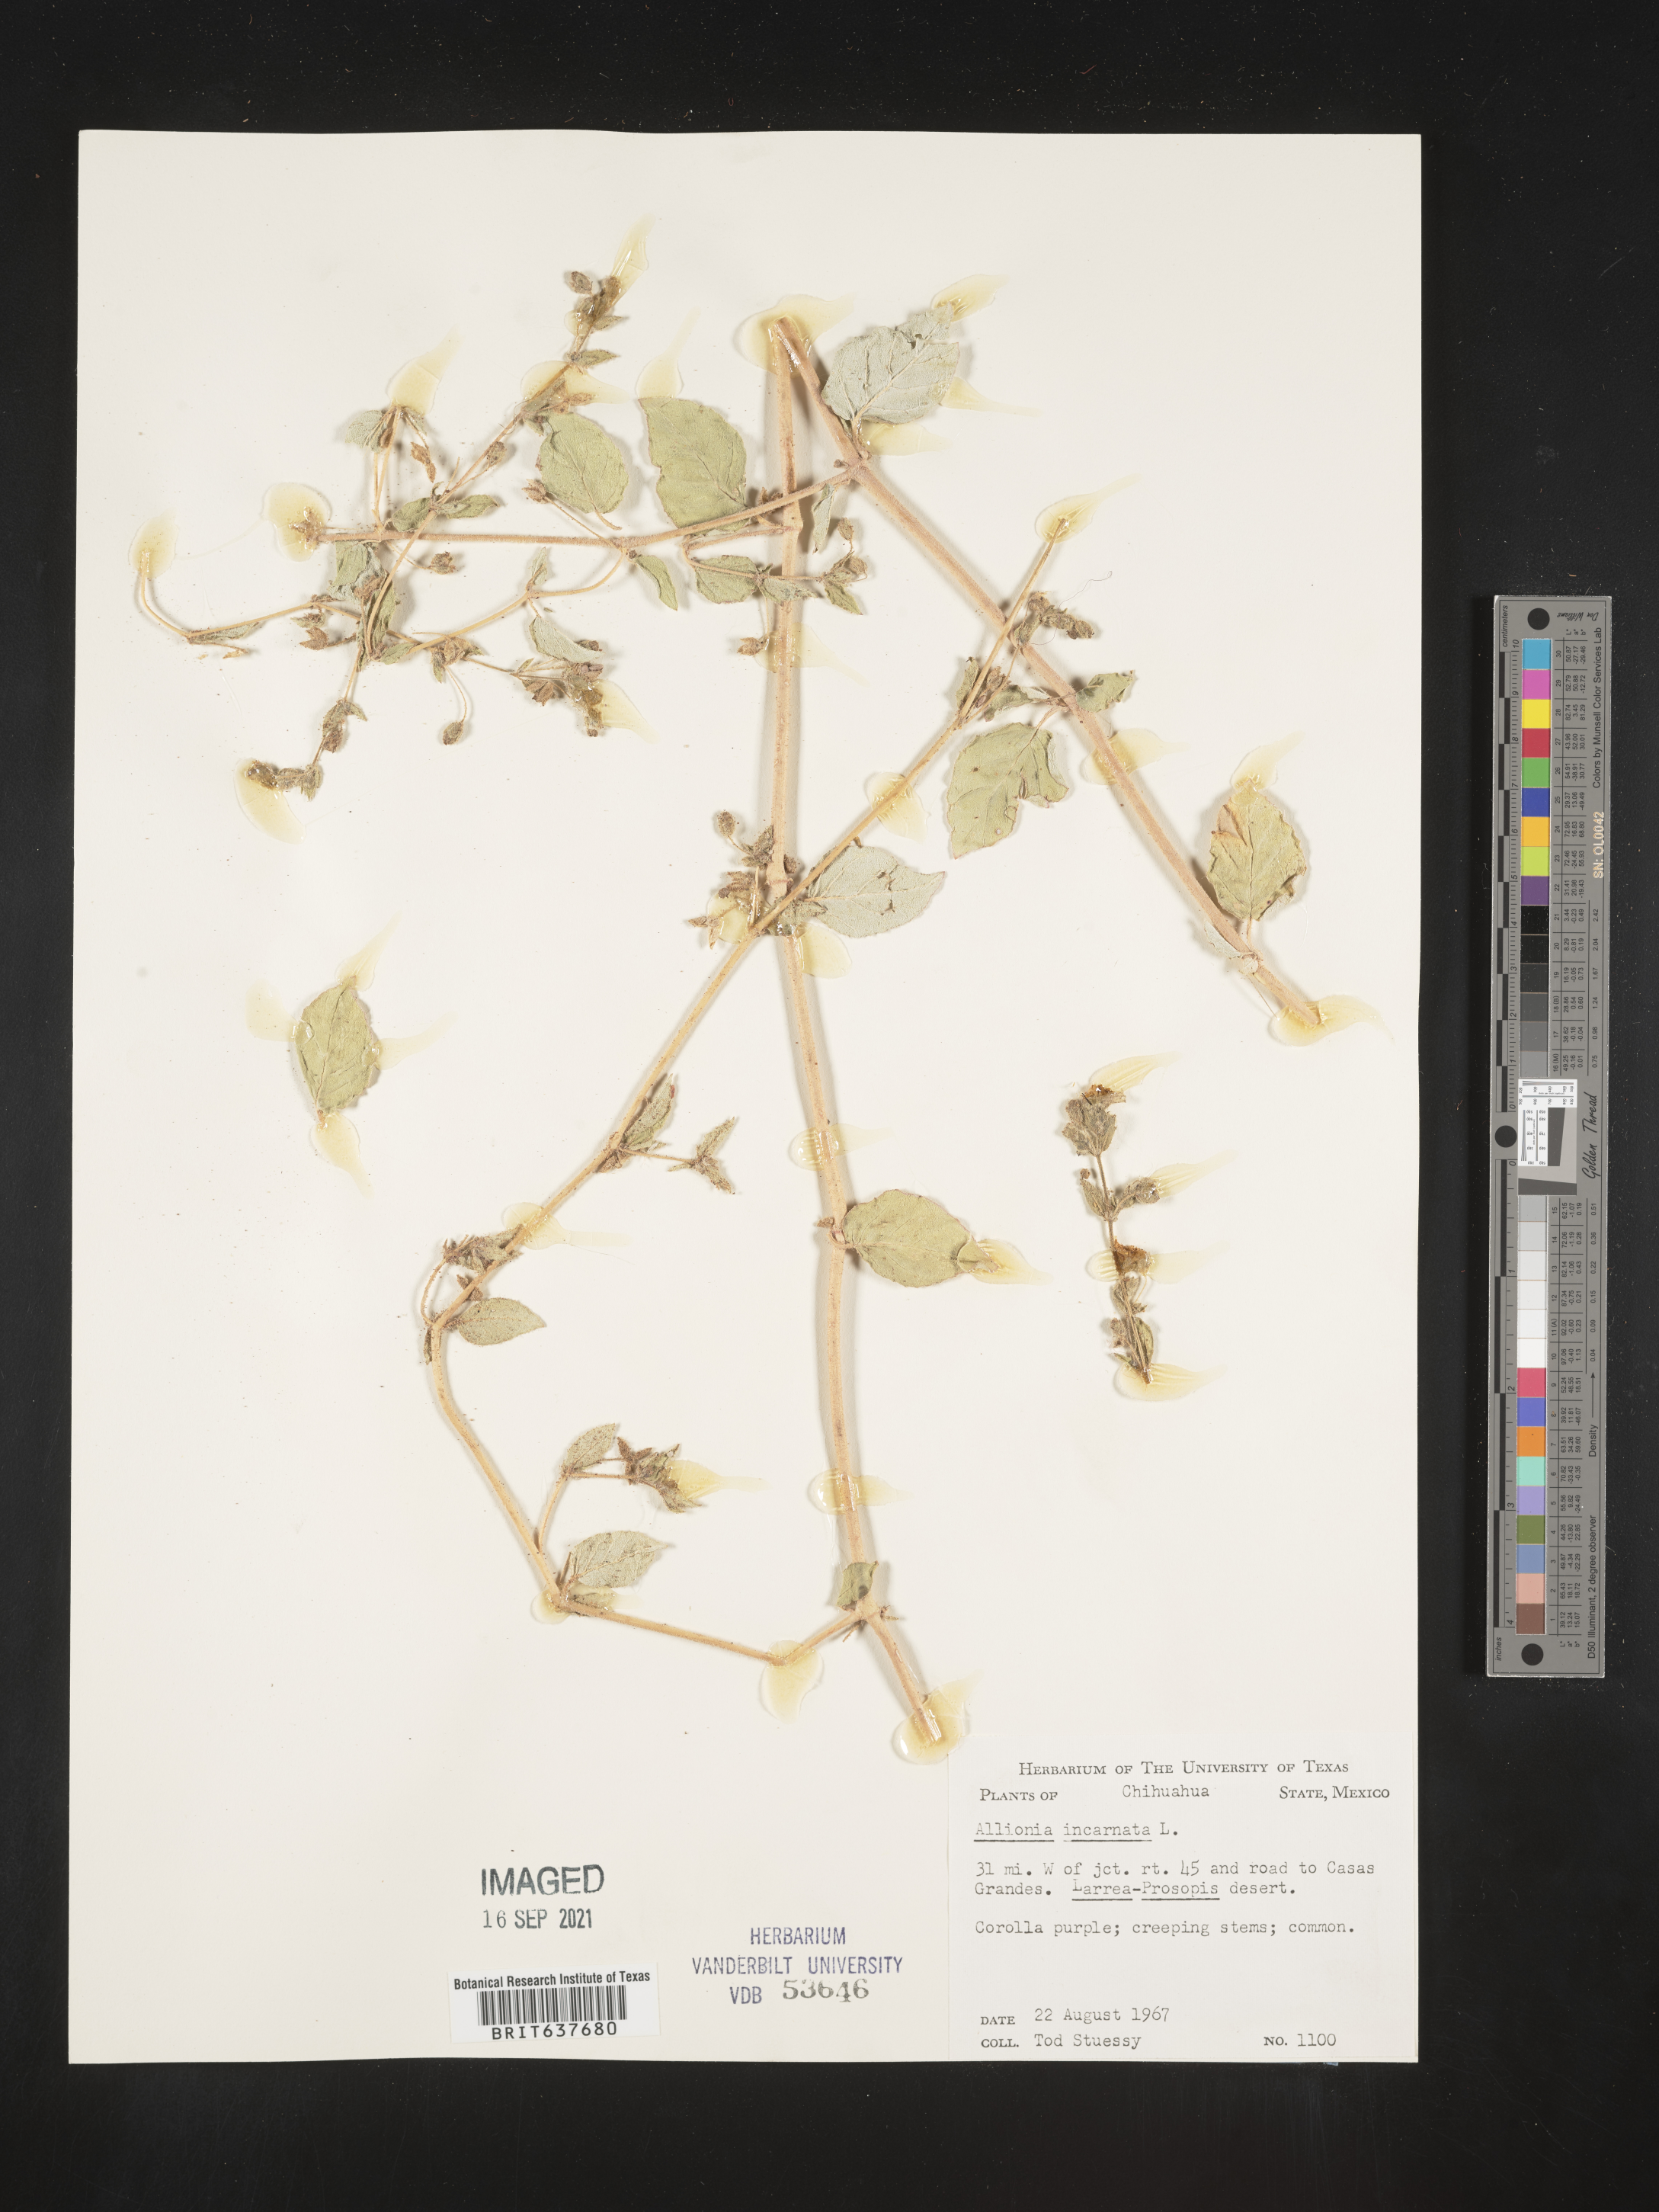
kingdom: Plantae
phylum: Tracheophyta
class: Magnoliopsida
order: Caryophyllales
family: Nyctaginaceae
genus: Allionia
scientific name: Allionia
